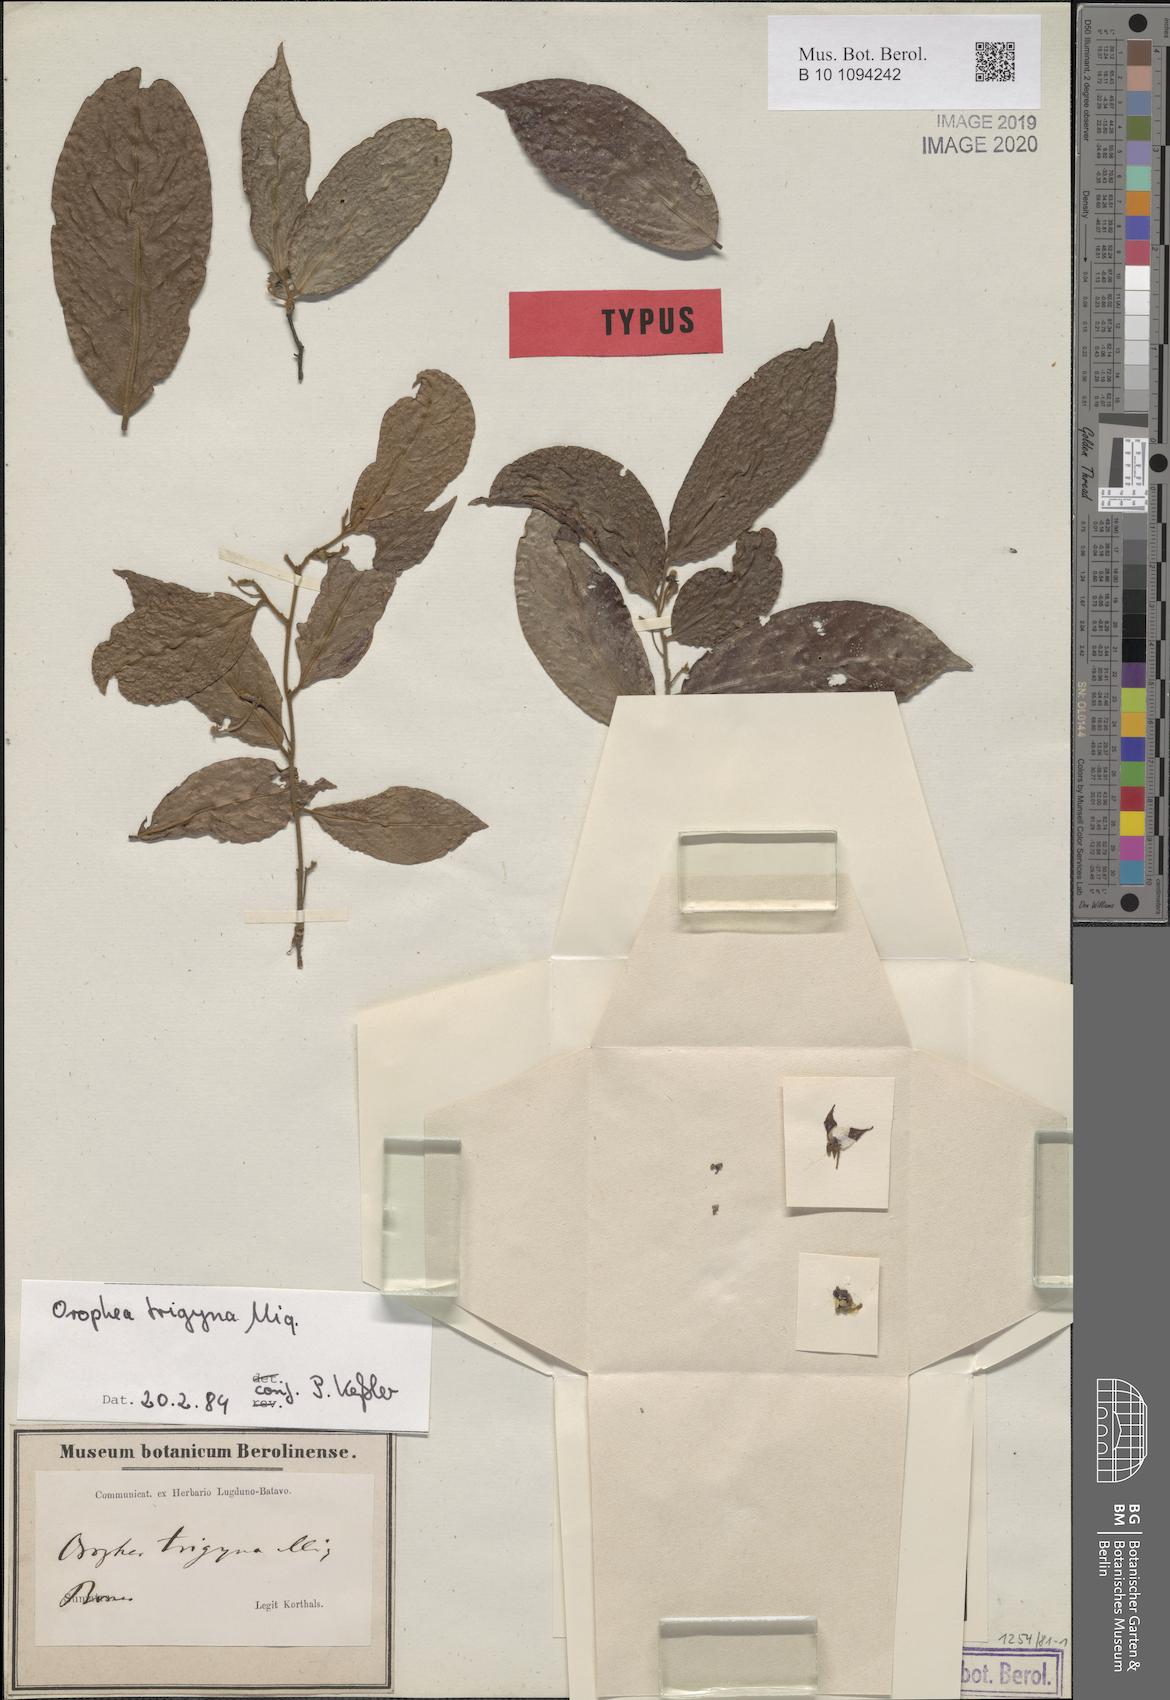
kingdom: Plantae
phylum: Tracheophyta
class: Magnoliopsida
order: Magnoliales
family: Annonaceae
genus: Orophea
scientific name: Orophea trigyna
